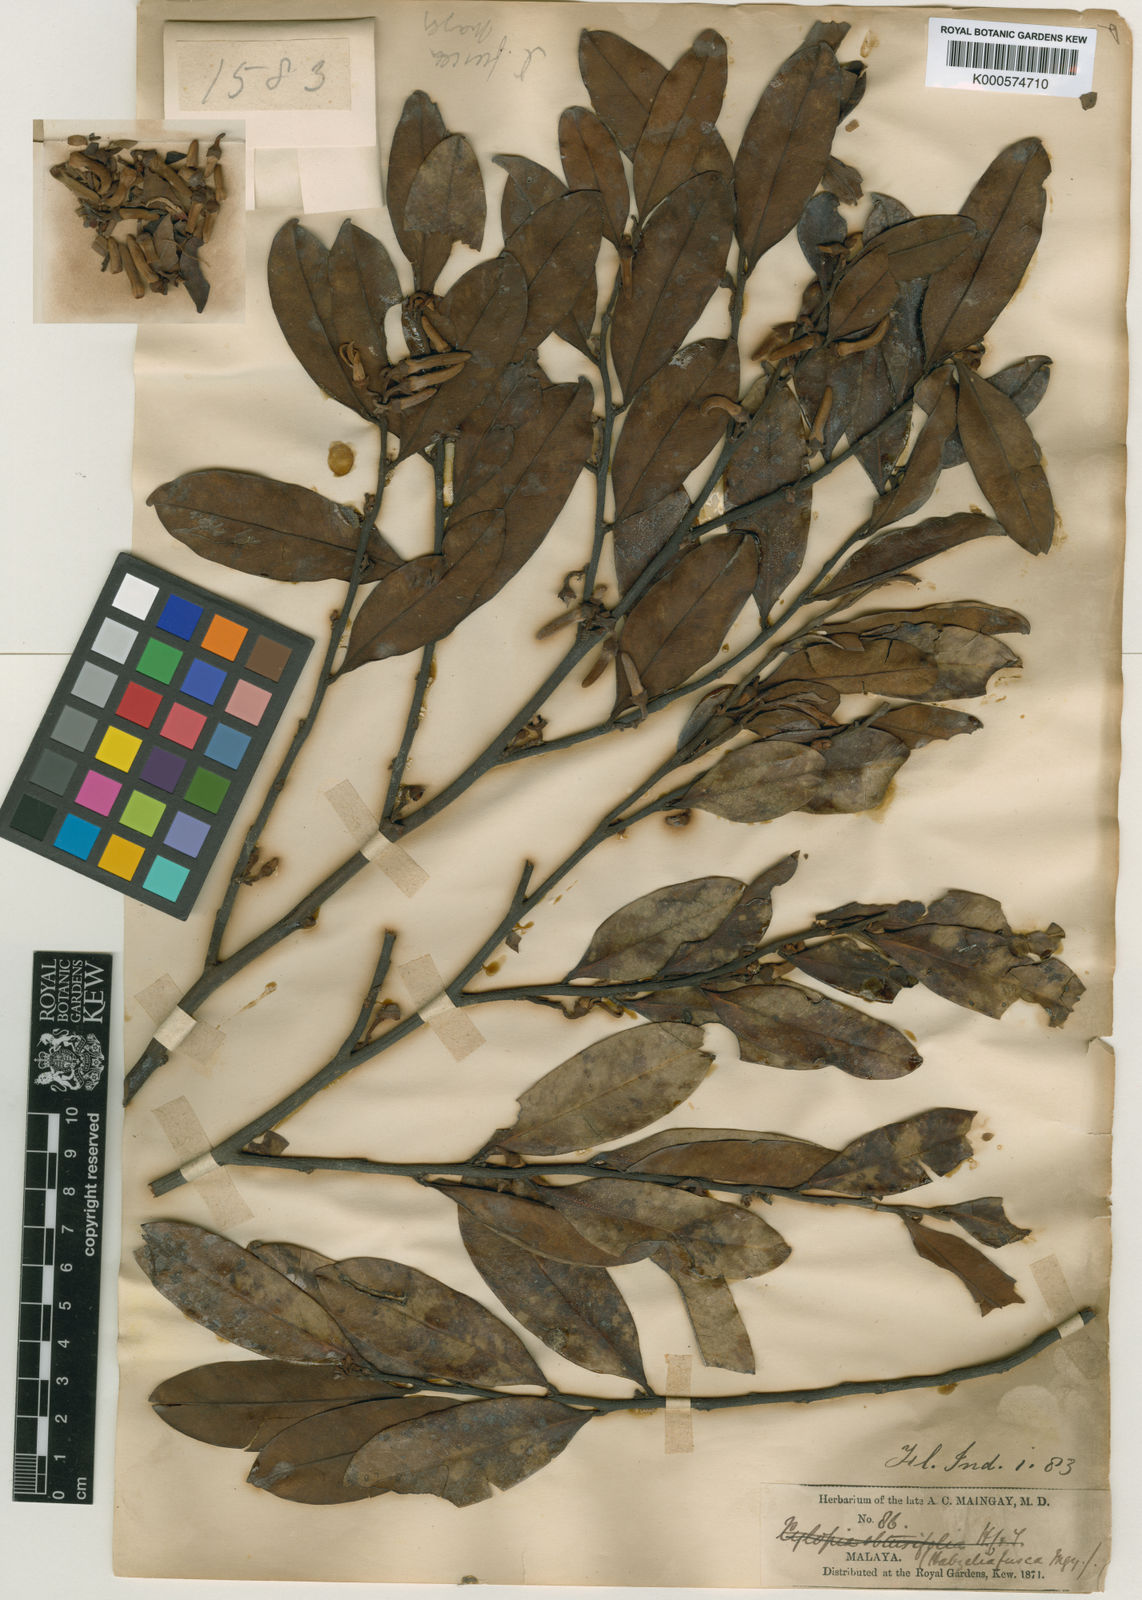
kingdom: Plantae
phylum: Tracheophyta
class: Magnoliopsida
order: Magnoliales
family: Annonaceae
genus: Xylopia
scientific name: Xylopia fusca
